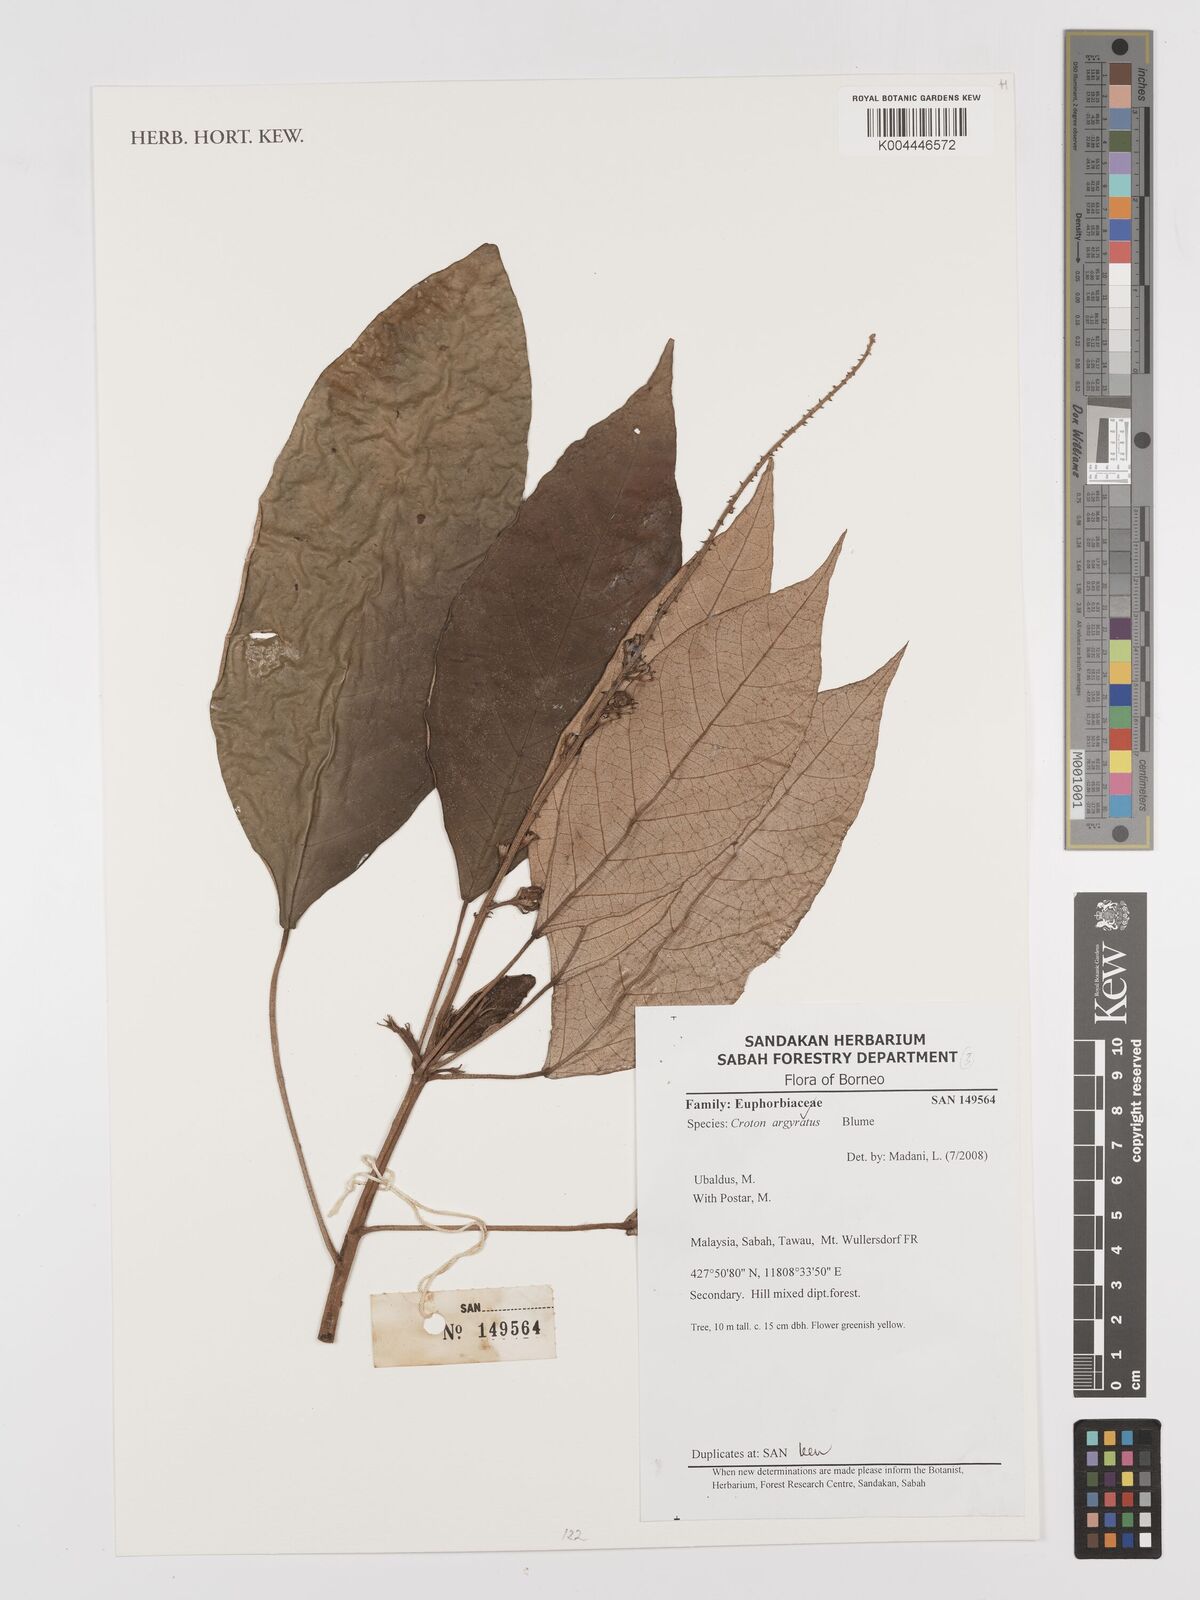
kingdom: Plantae
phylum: Tracheophyta
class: Magnoliopsida
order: Malpighiales
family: Euphorbiaceae
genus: Croton
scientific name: Croton argyratus
